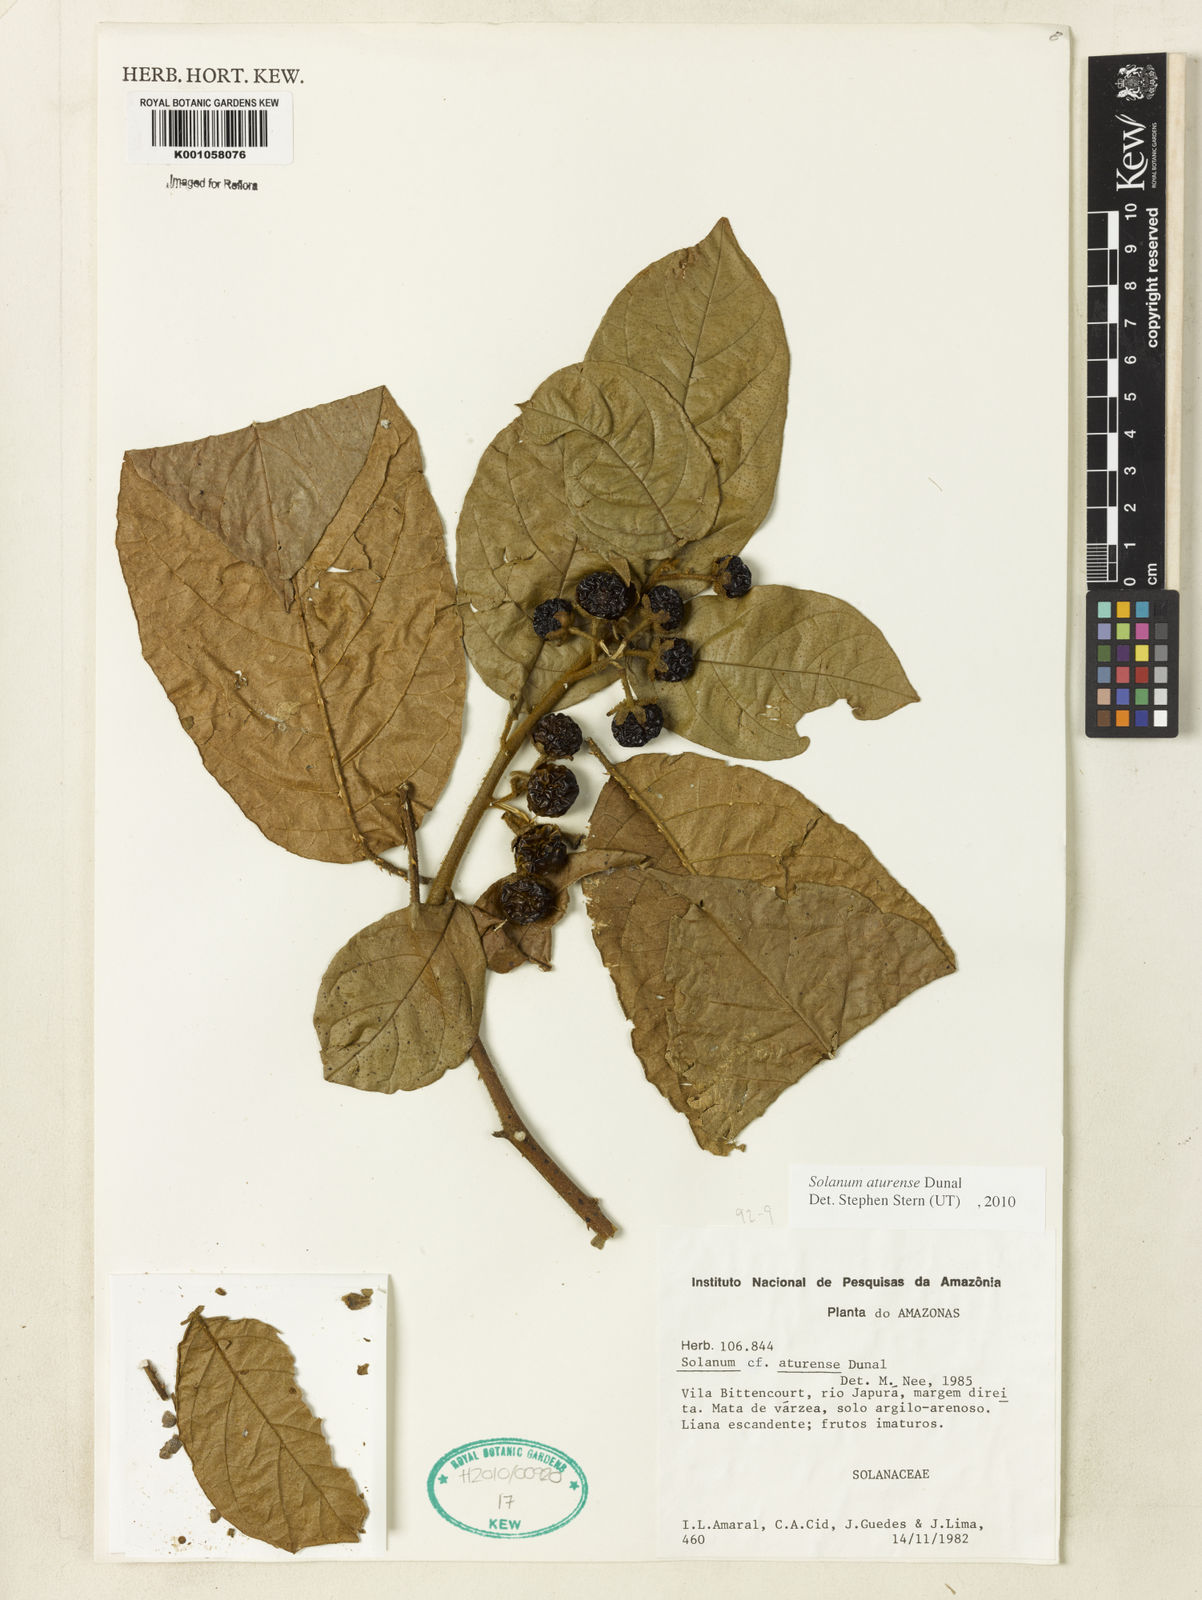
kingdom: Plantae
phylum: Tracheophyta
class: Magnoliopsida
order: Solanales
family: Solanaceae
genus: Solanum
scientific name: Solanum aturense
